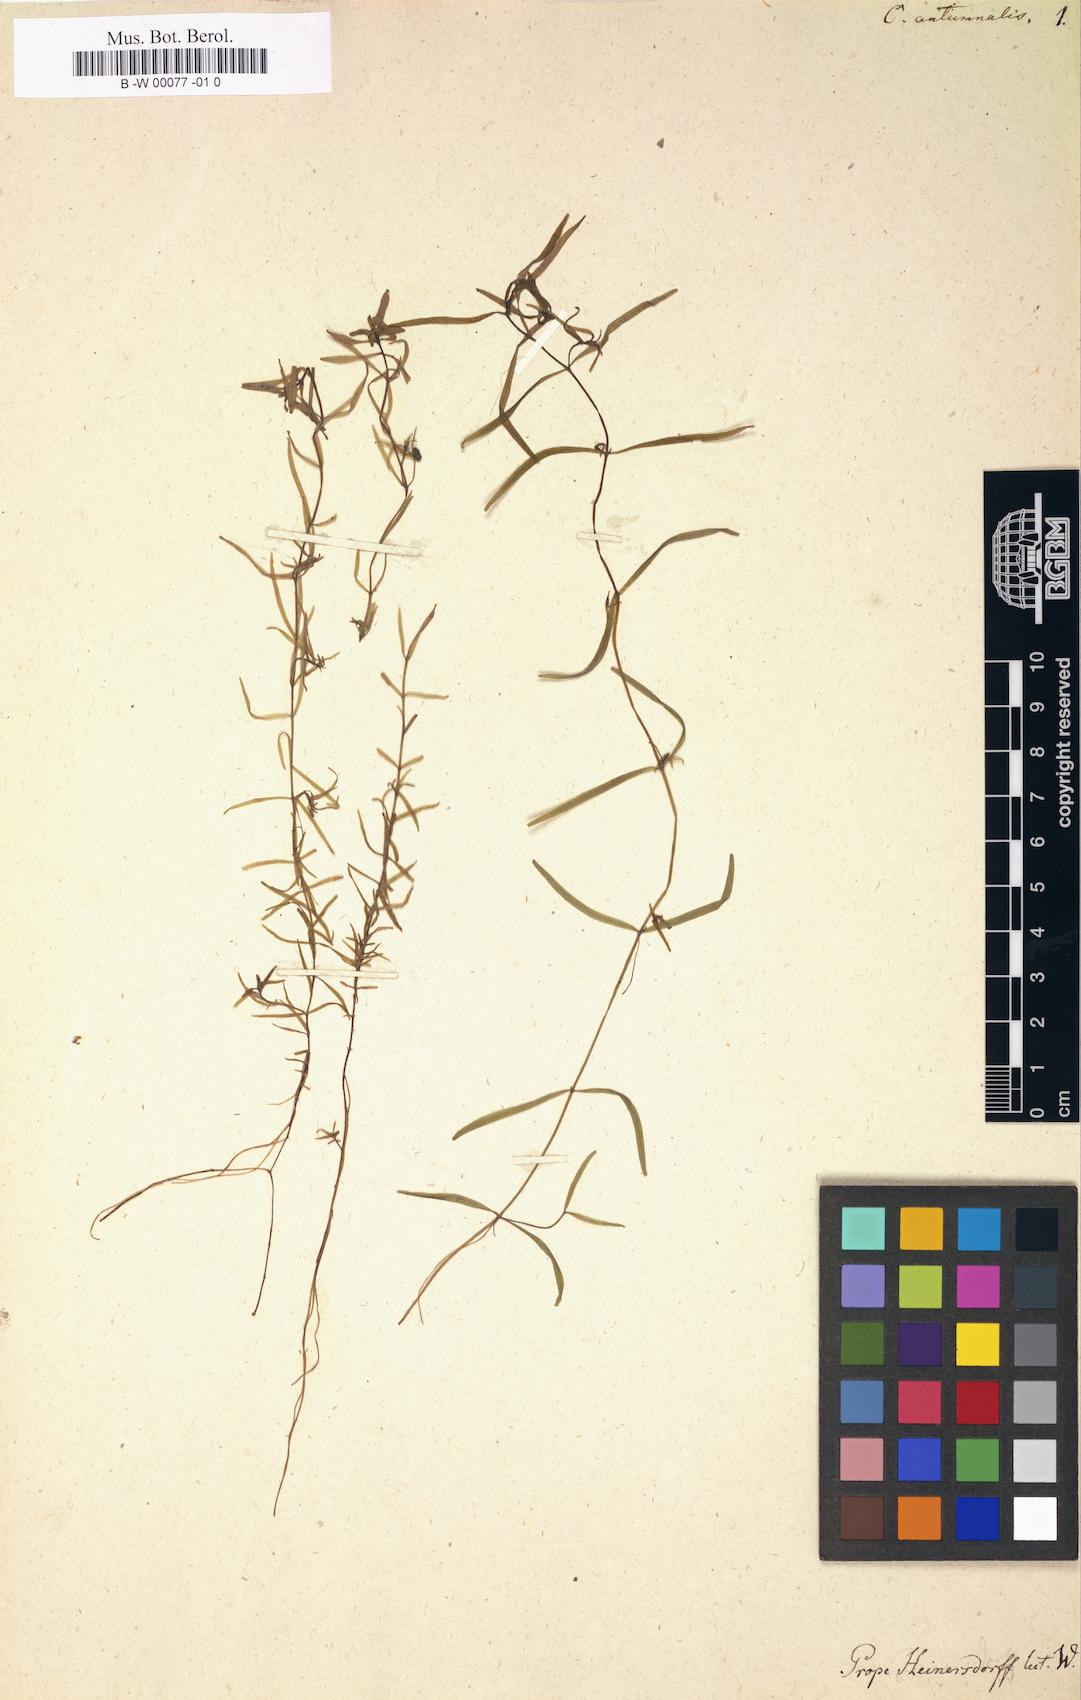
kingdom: Plantae
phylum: Tracheophyta
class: Magnoliopsida
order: Lamiales
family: Plantaginaceae
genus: Callitriche
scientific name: Callitriche hermaphroditica
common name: Autumnal water-starwort
